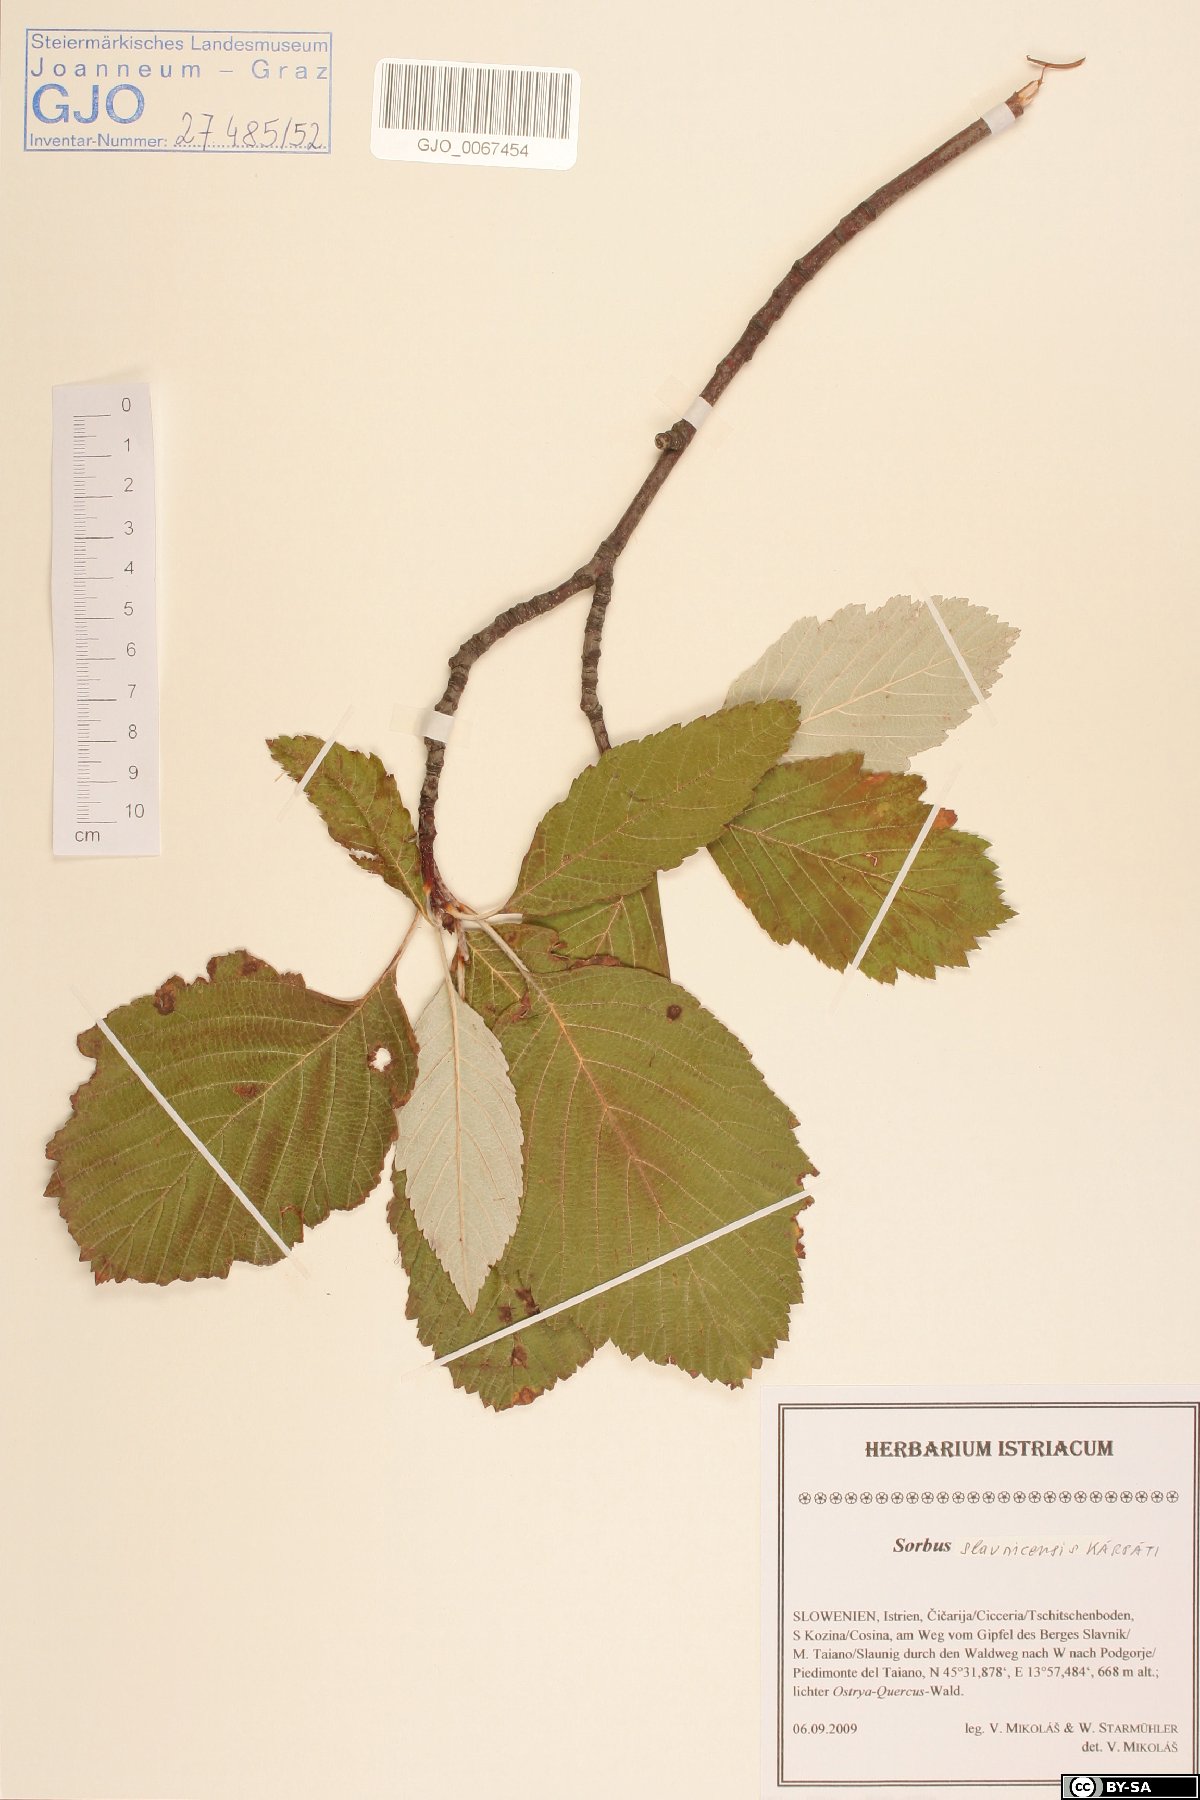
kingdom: Plantae
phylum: Tracheophyta
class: Magnoliopsida
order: Rosales
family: Rosaceae
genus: Karpatiosorbus
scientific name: Karpatiosorbus slavnicensis
